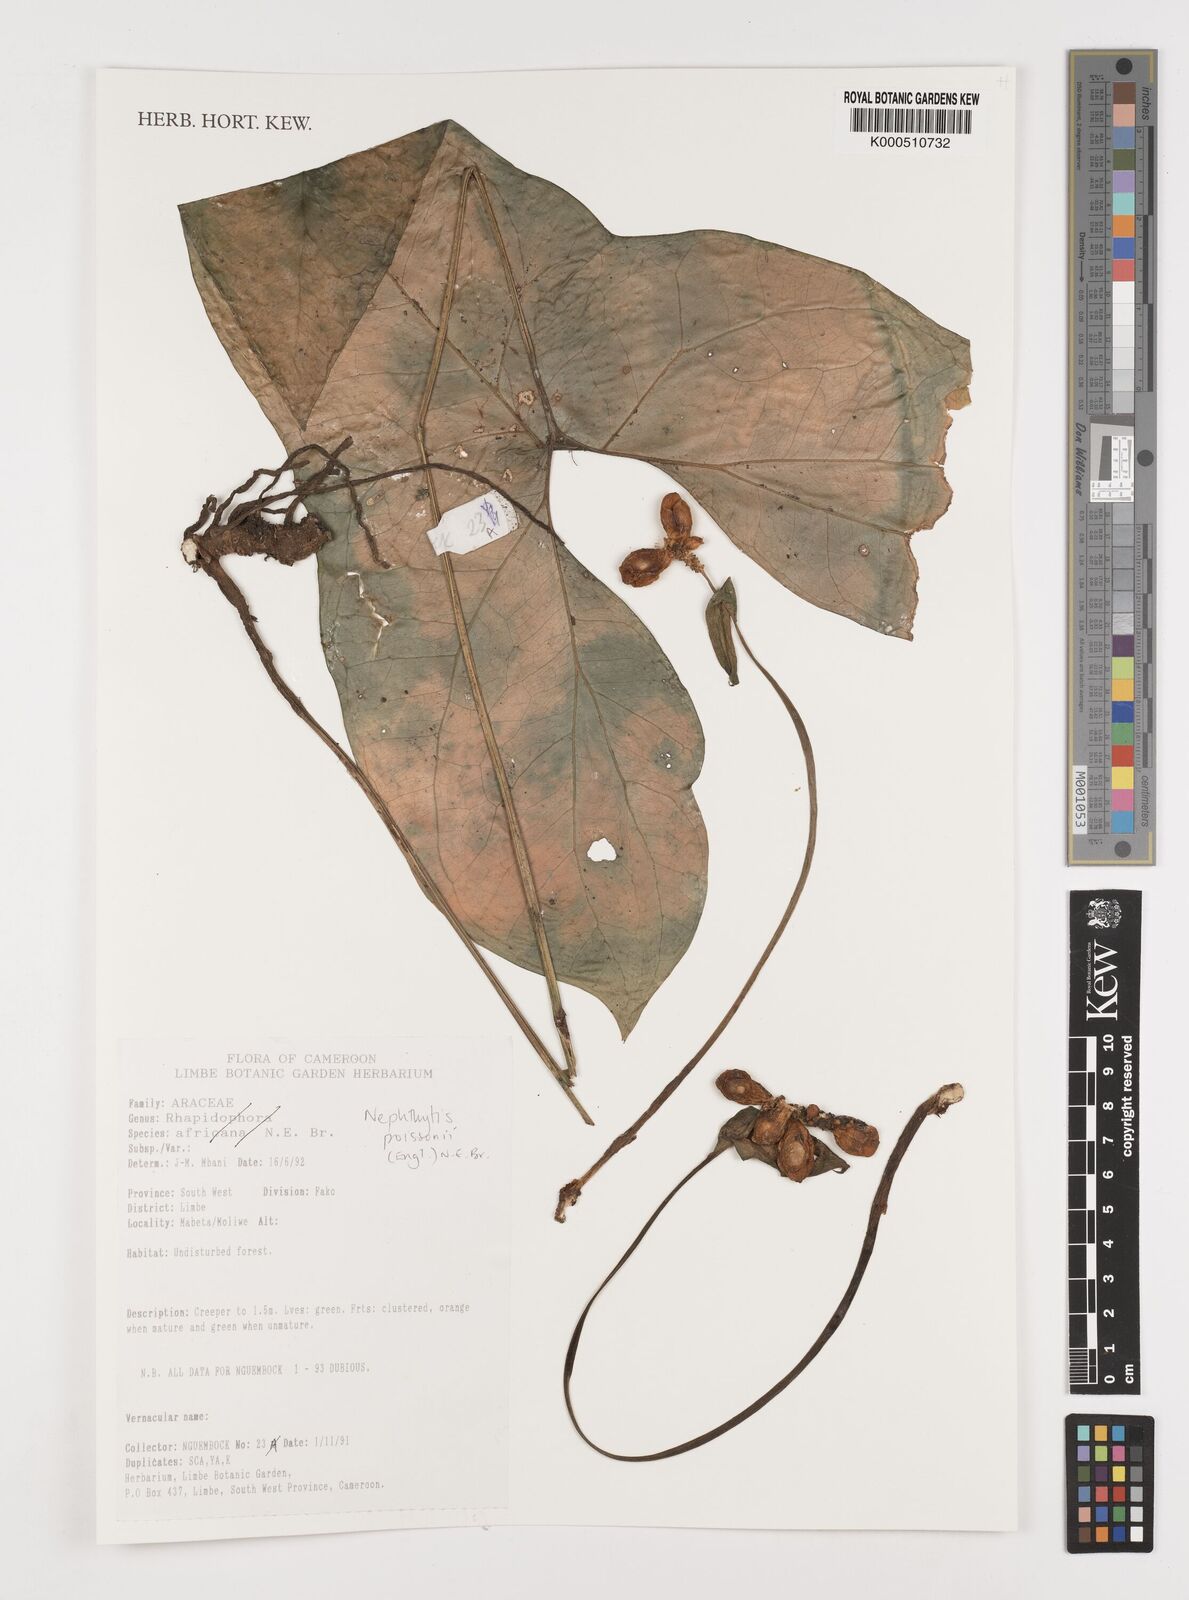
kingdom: Plantae
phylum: Tracheophyta
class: Liliopsida
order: Alismatales
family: Araceae
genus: Nephthytis
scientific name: Nephthytis poissonii
